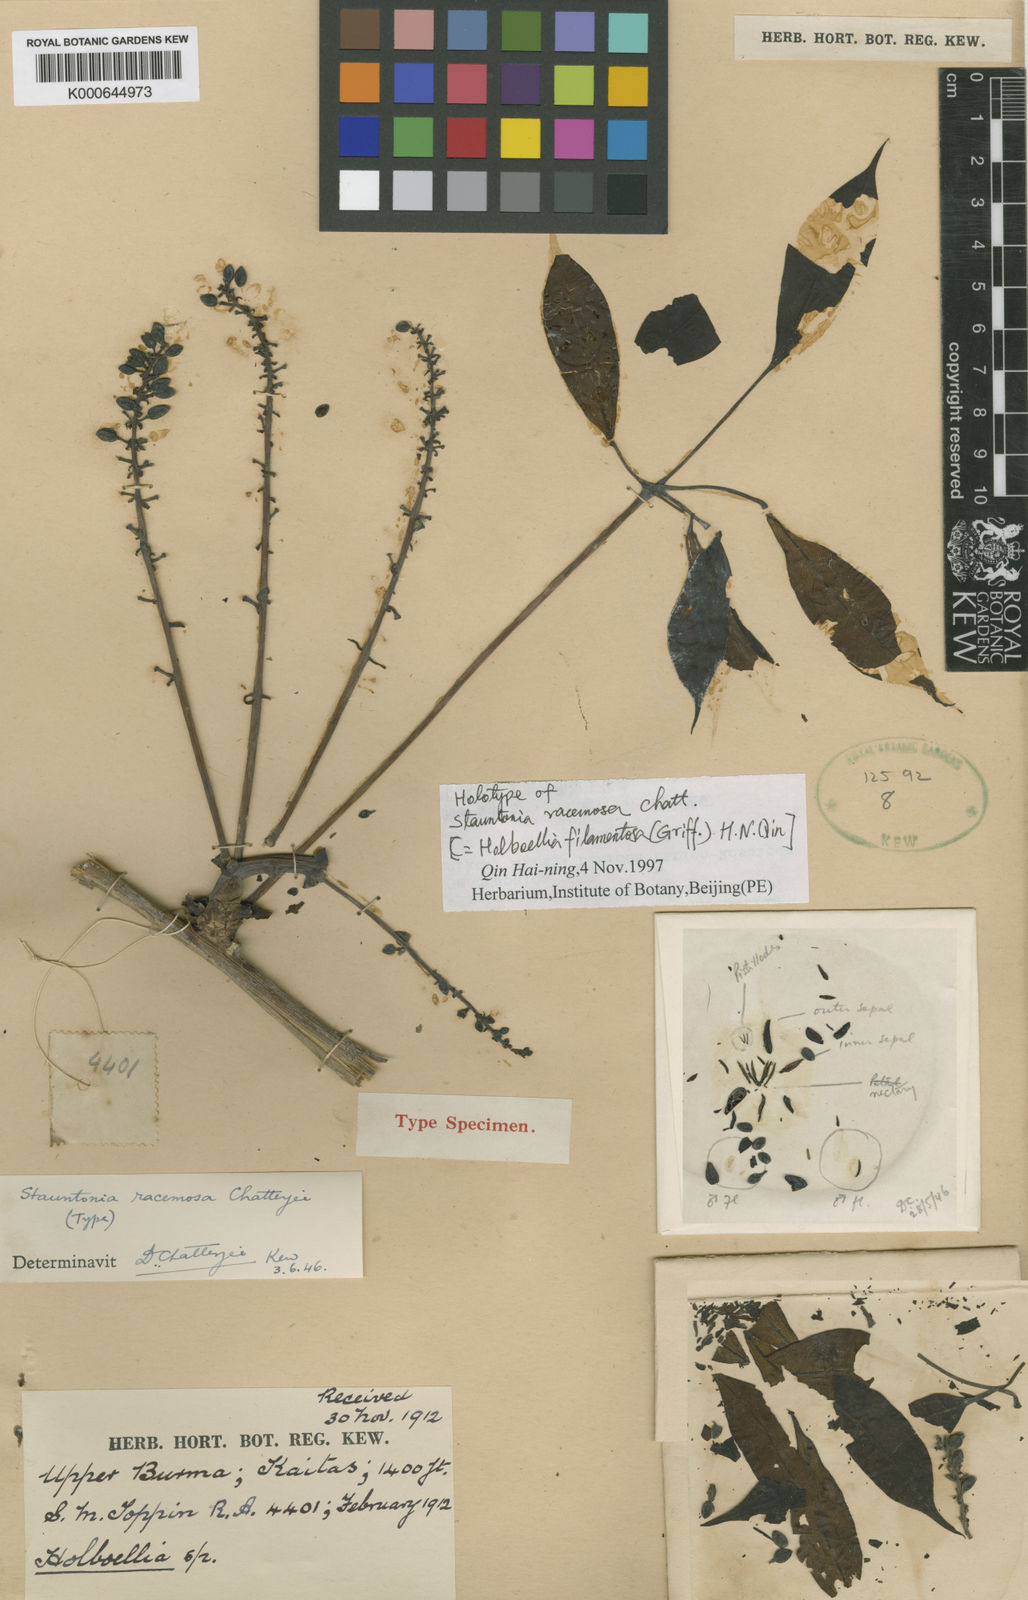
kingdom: Plantae
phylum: Tracheophyta
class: Magnoliopsida
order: Ranunculales
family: Lardizabalaceae
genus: Stauntonia
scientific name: Stauntonia filamentosa
